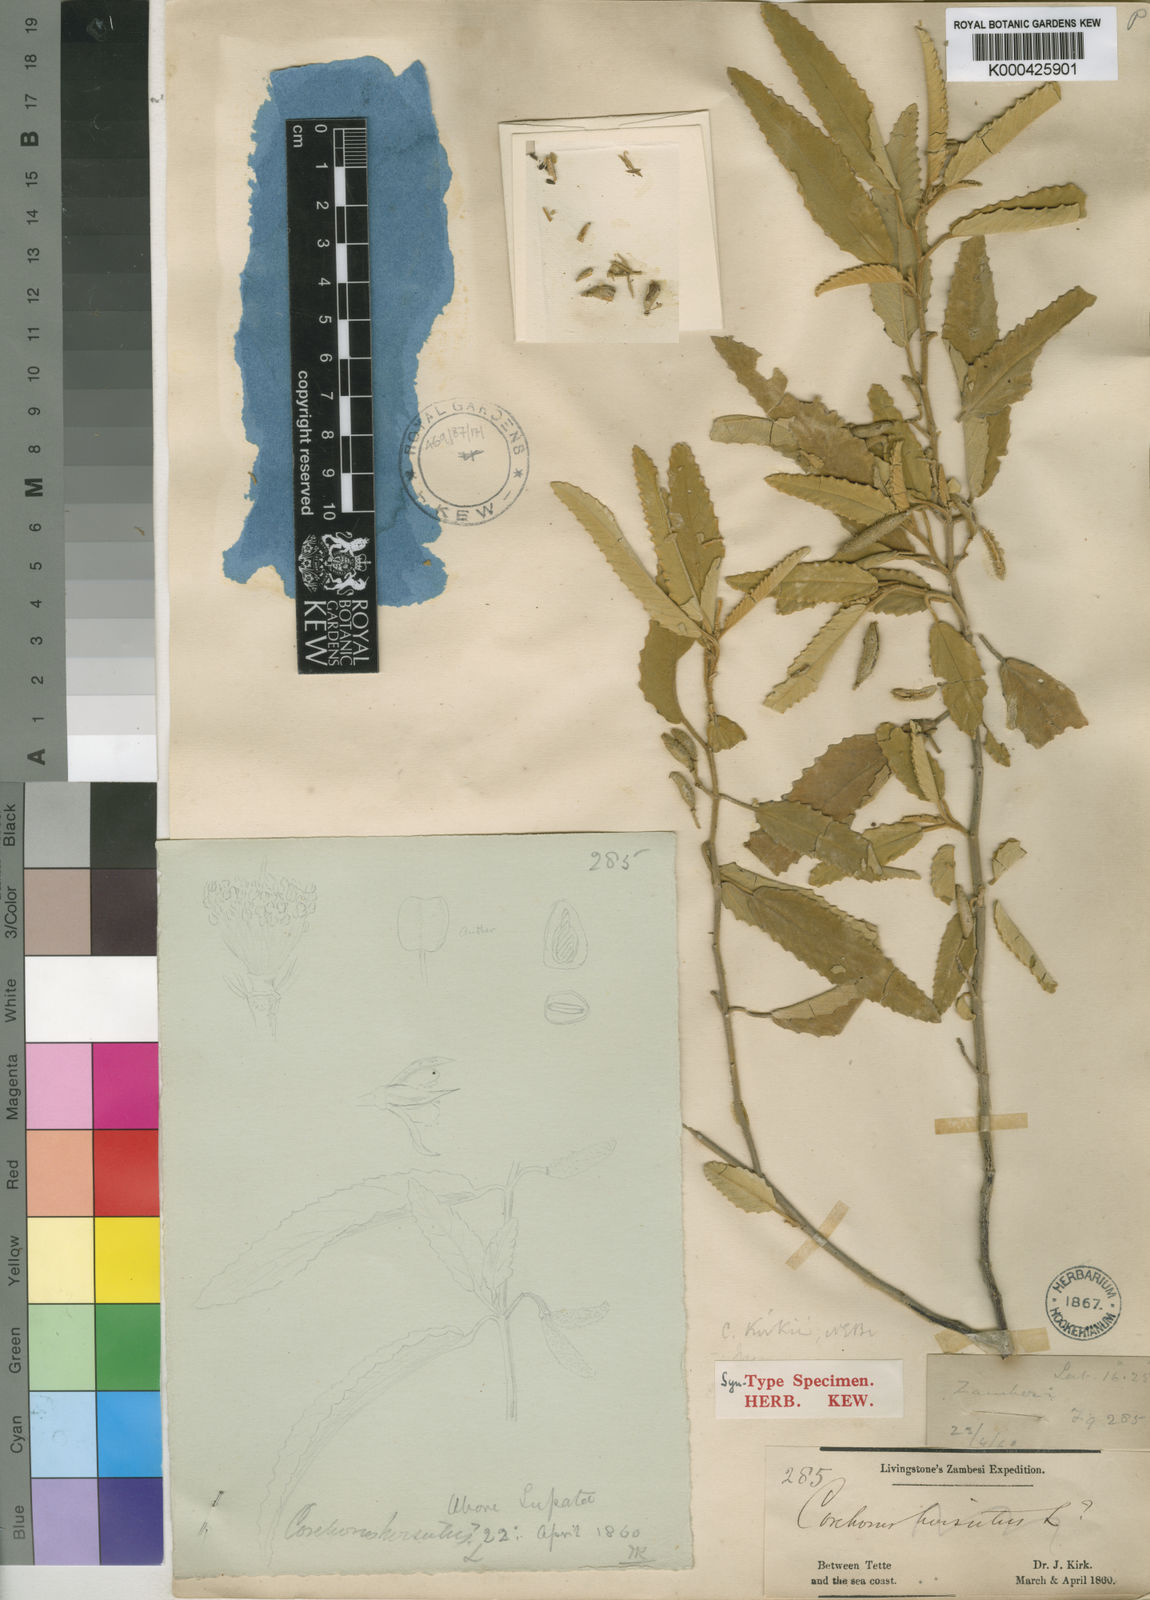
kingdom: Plantae
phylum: Tracheophyta
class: Magnoliopsida
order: Malvales
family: Malvaceae
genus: Corchorus
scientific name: Corchorus kirkii
